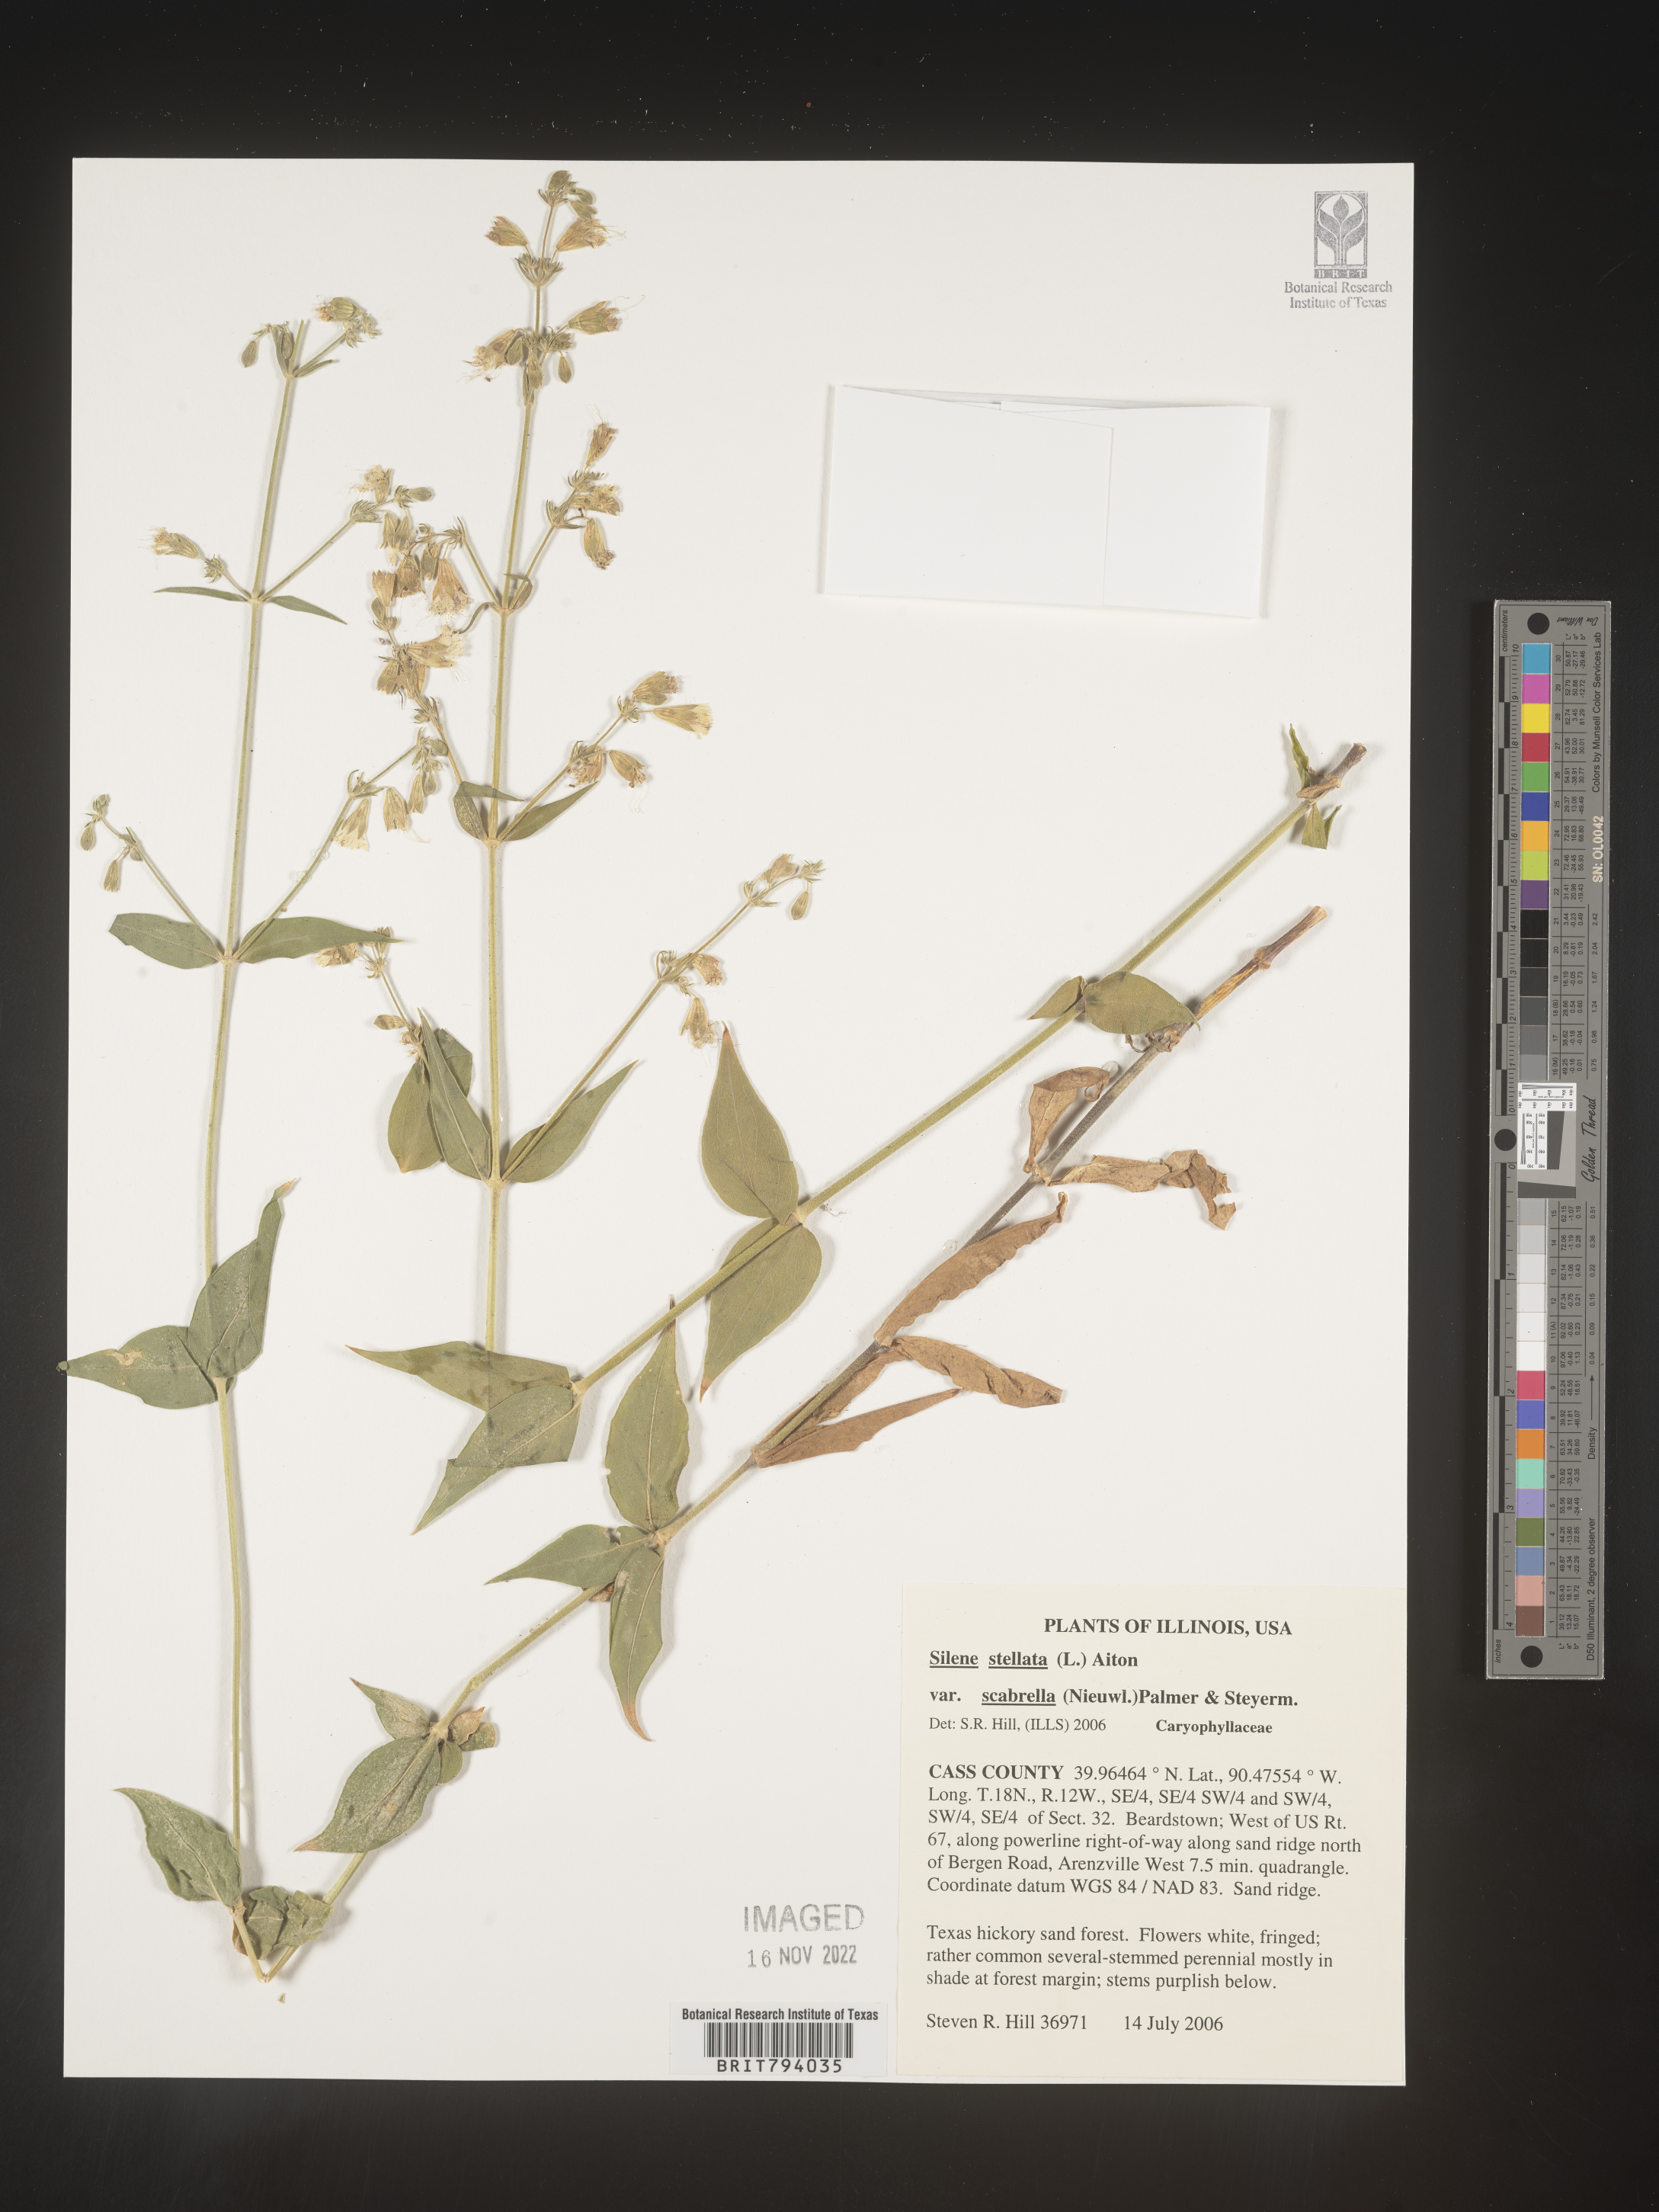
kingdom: Plantae
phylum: Tracheophyta
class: Magnoliopsida
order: Caryophyllales
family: Caryophyllaceae
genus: Silene
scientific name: Silene stellata
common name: Starry campion
